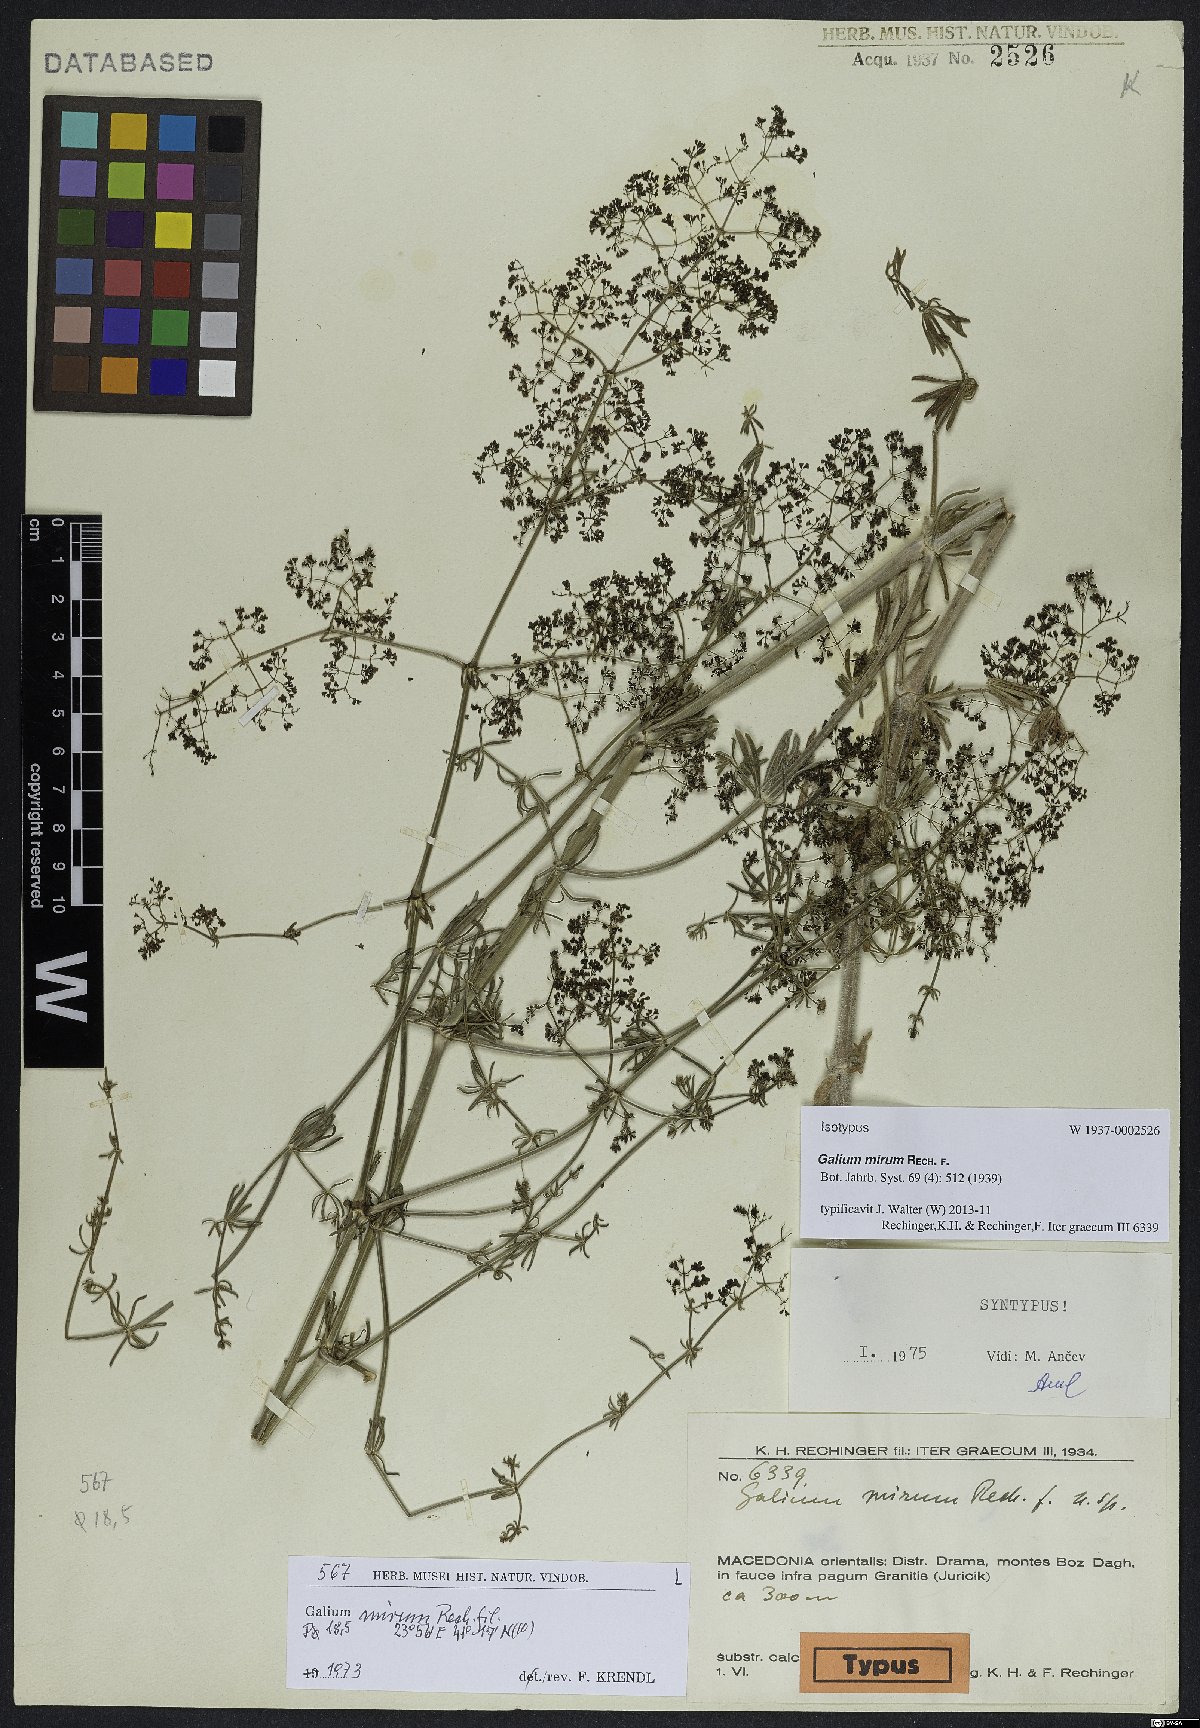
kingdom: Plantae
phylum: Tracheophyta
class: Magnoliopsida
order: Gentianales
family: Rubiaceae
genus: Galium
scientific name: Galium mirum
